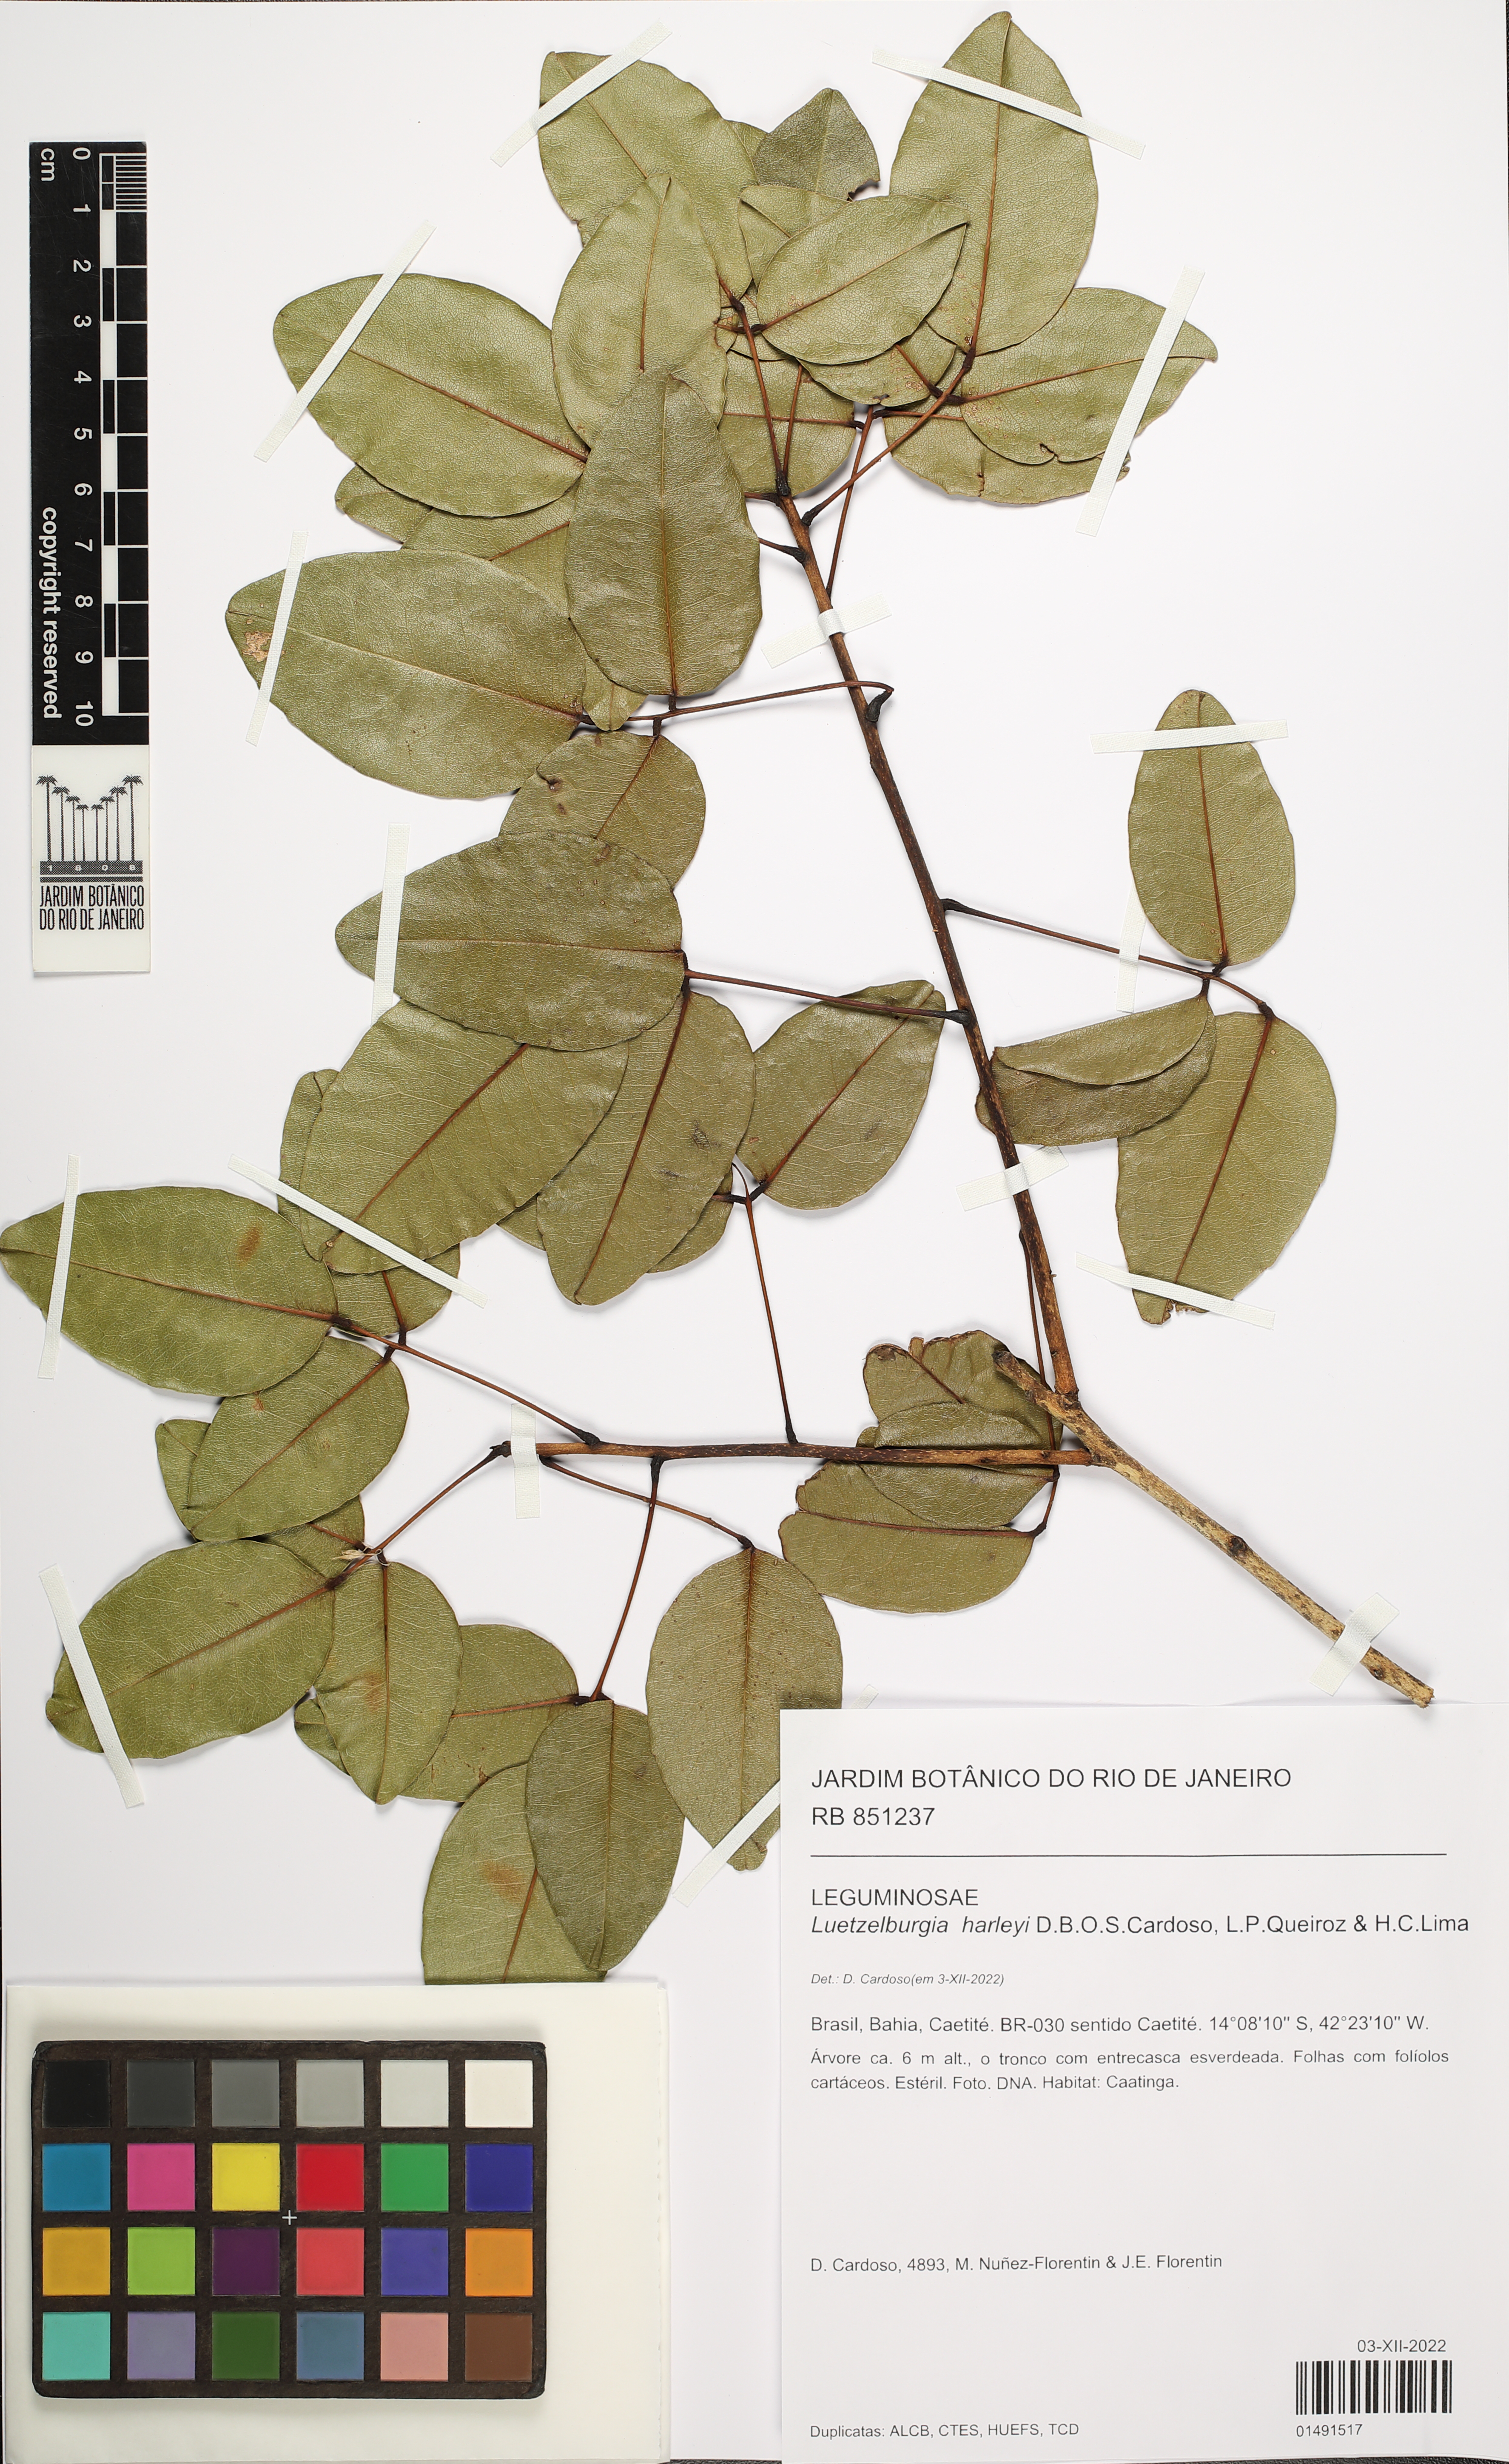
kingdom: Plantae
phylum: Tracheophyta
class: Magnoliopsida
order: Fabales
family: Fabaceae
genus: Luetzelburgia
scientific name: Luetzelburgia harleyi
